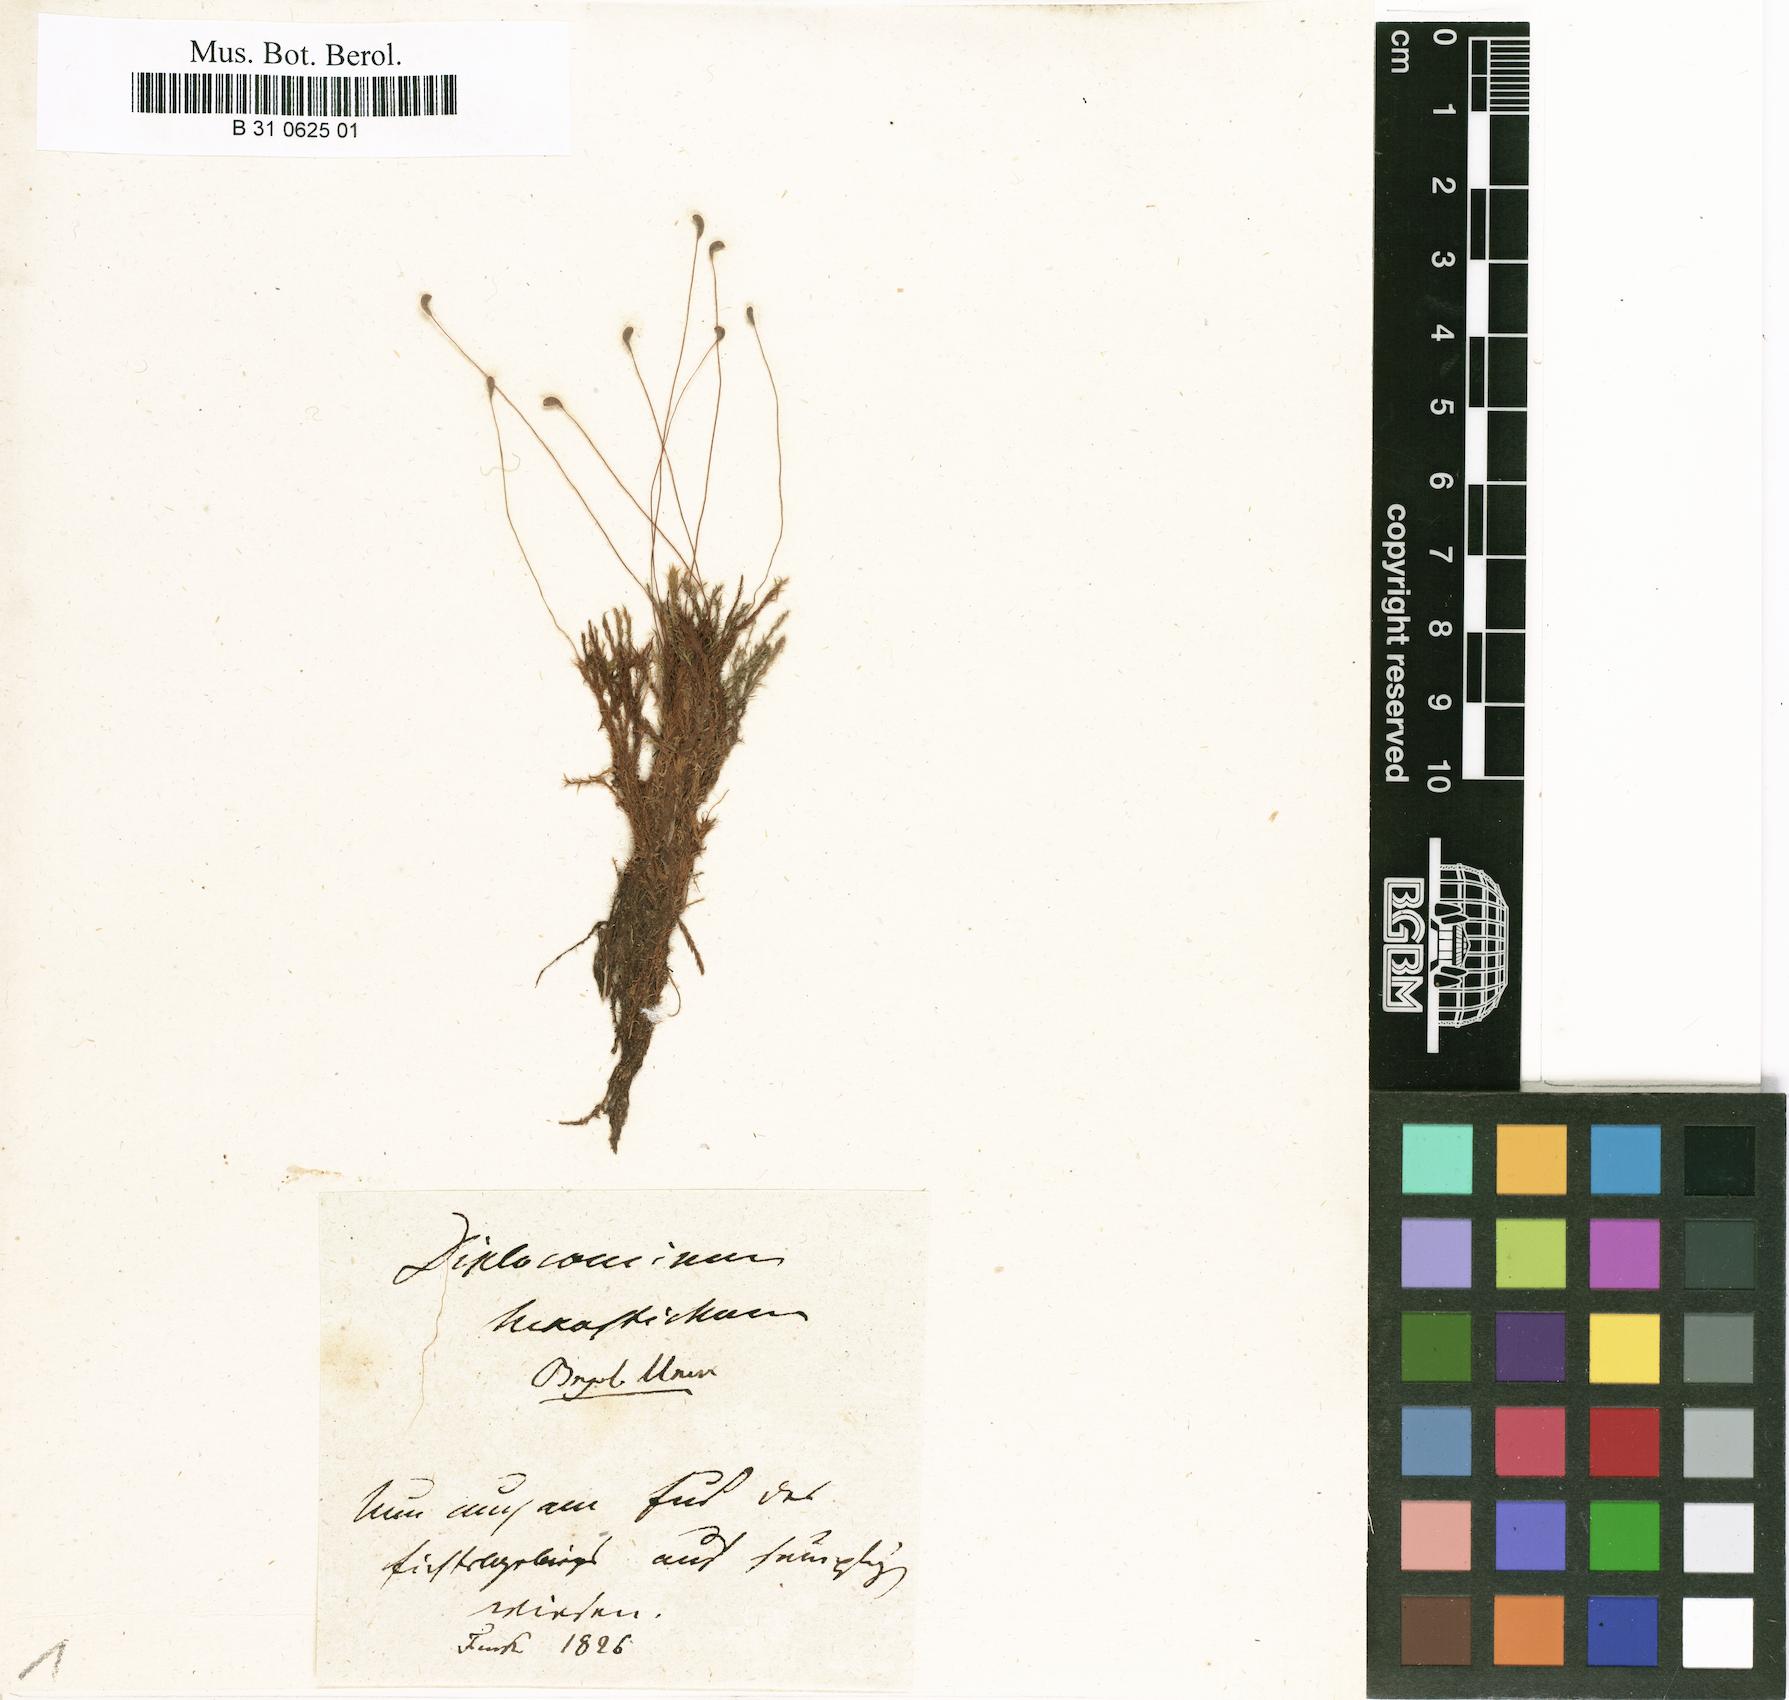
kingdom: Plantae
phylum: Bryophyta
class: Bryopsida
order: Splachnales
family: Meesiaceae
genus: Meesia
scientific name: Meesia hexasticha
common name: Triangular-leaved thread moss
